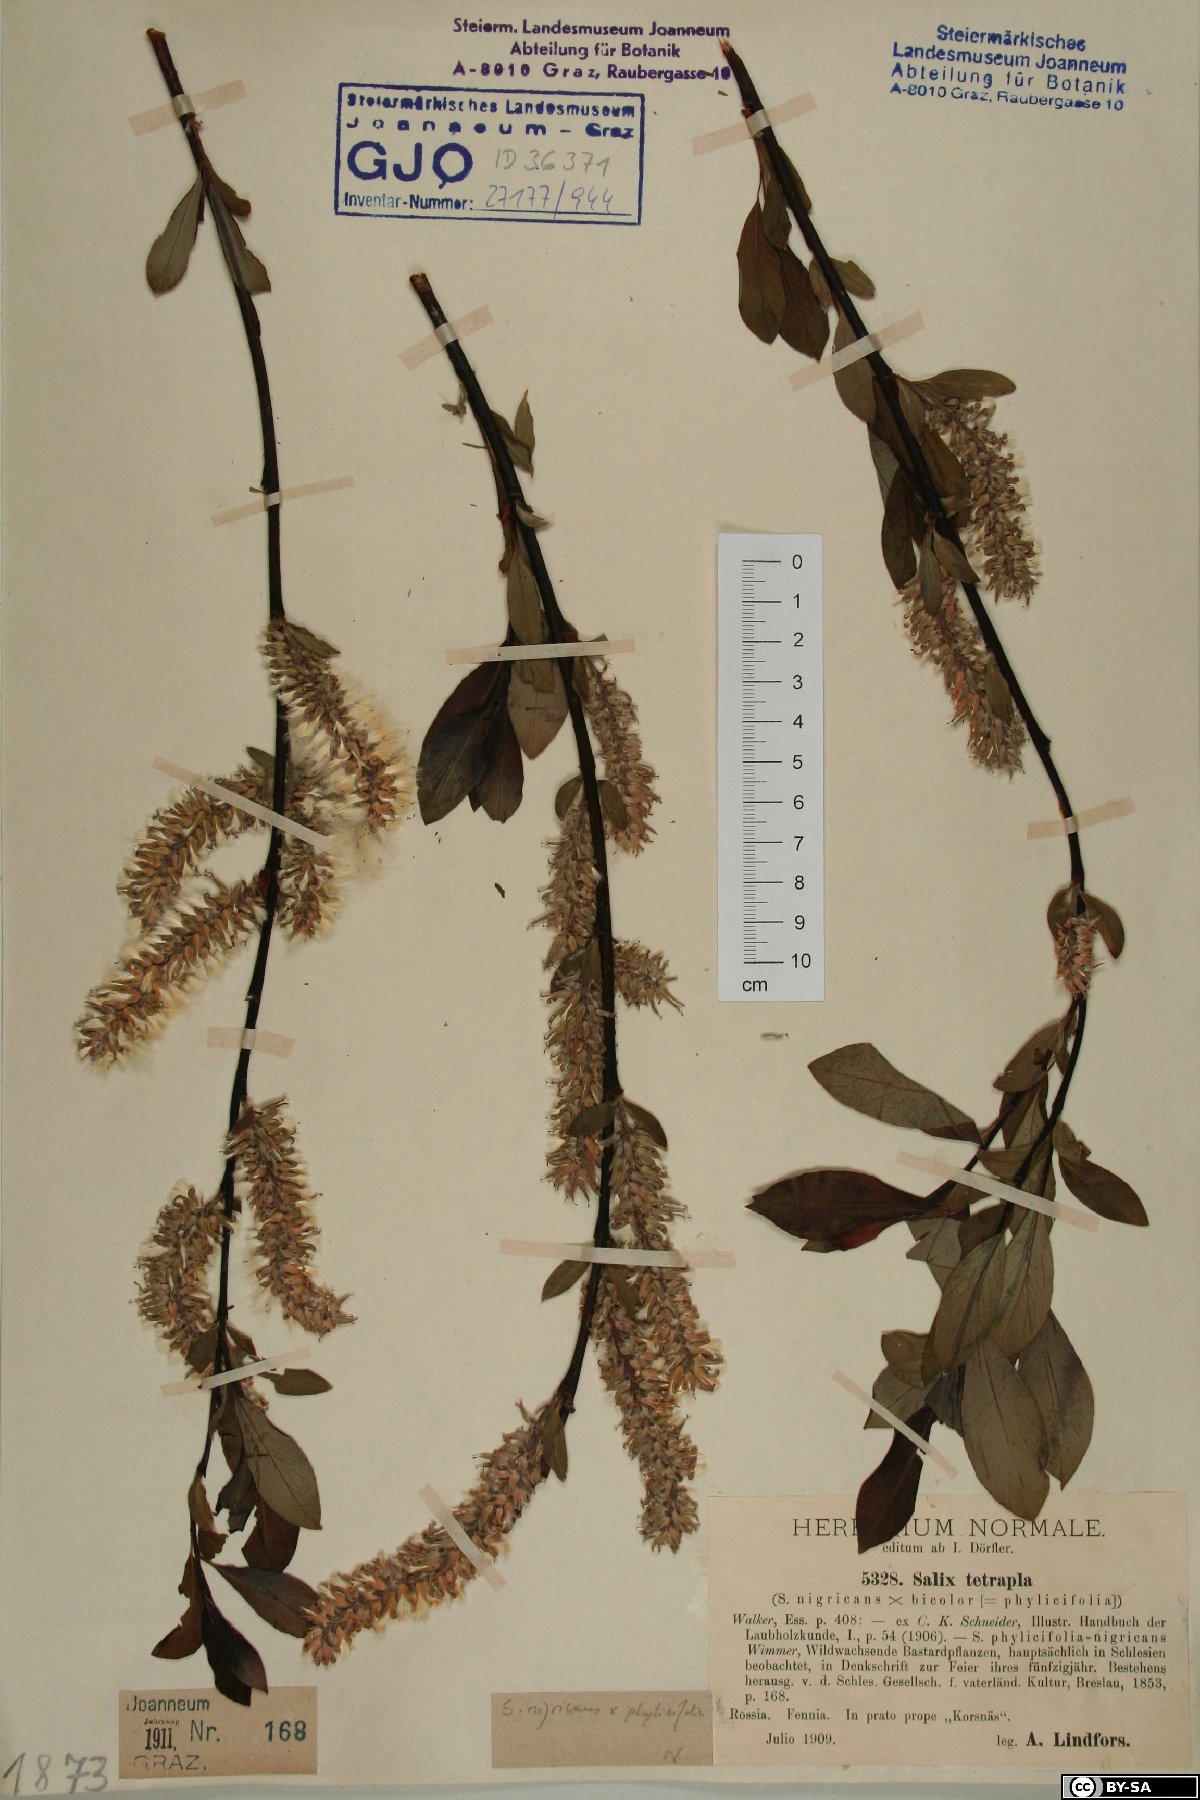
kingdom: Plantae
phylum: Tracheophyta
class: Magnoliopsida
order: Malpighiales
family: Salicaceae
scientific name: Salicaceae
